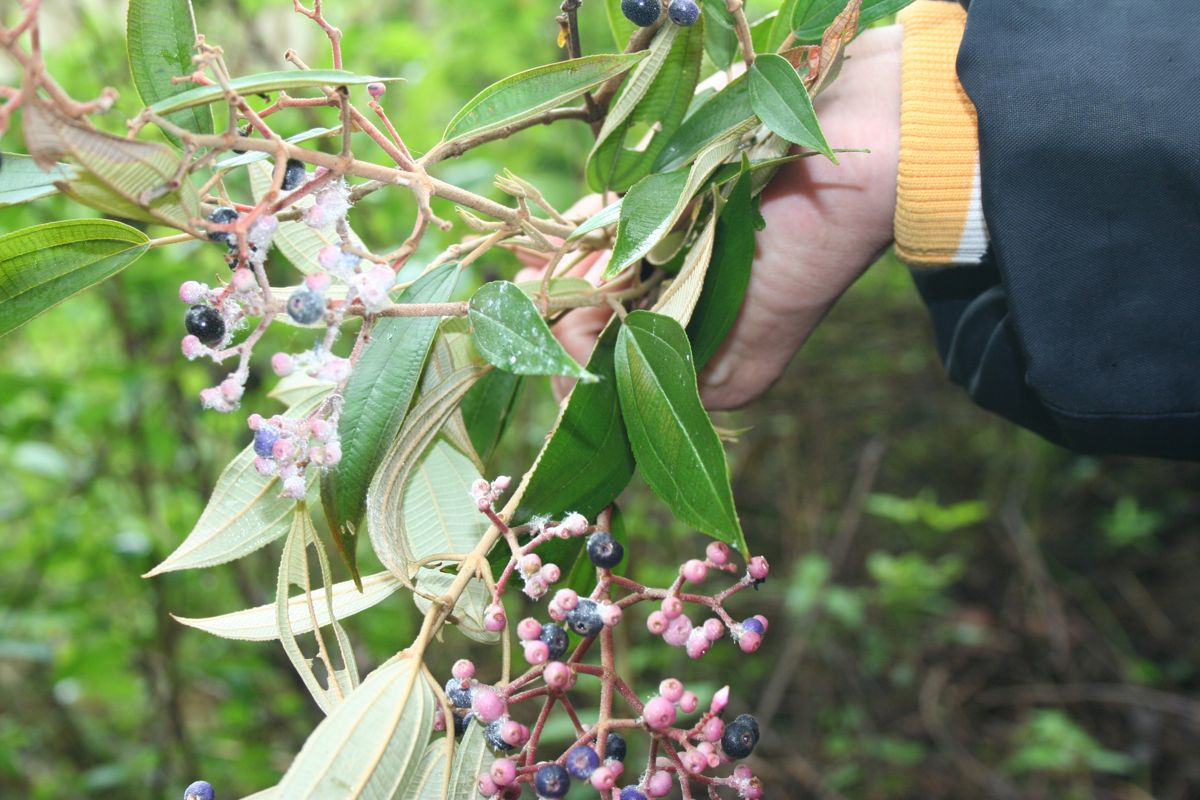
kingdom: Plantae
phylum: Tracheophyta
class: Magnoliopsida
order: Myrtales
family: Melastomataceae
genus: Miconia
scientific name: Miconia xalapensis
